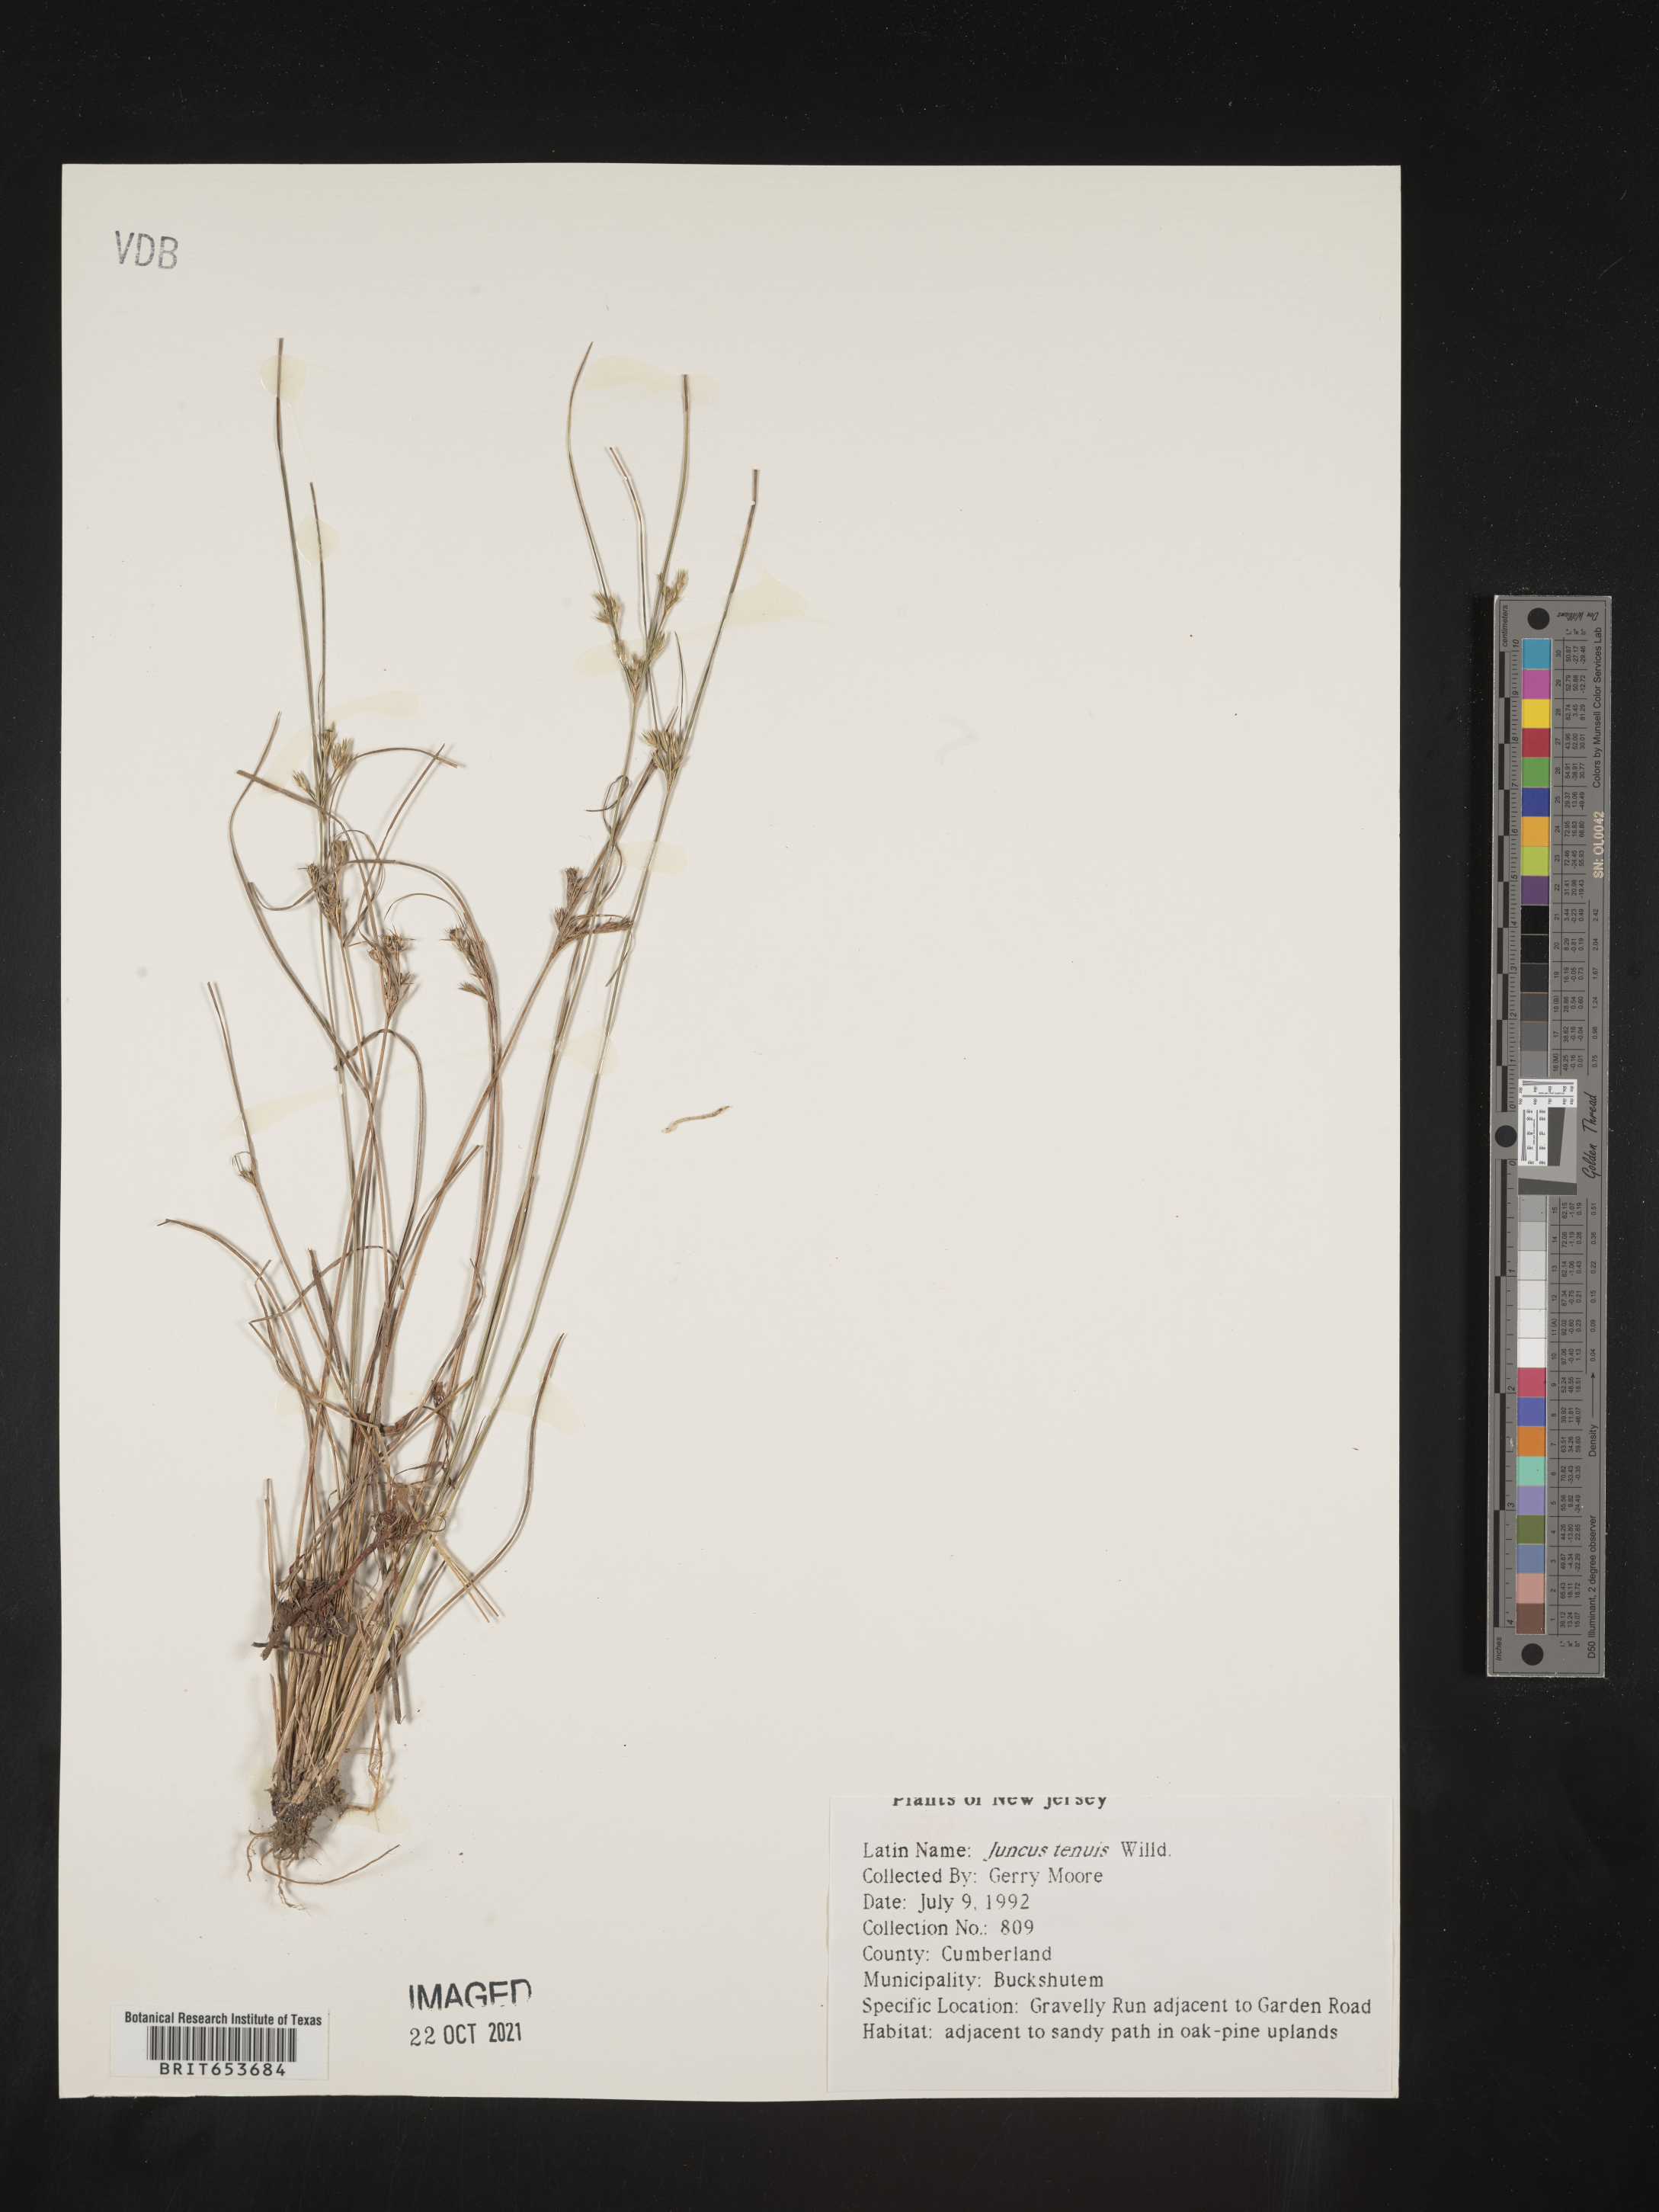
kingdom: Plantae
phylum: Tracheophyta
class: Liliopsida
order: Poales
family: Juncaceae
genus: Juncus
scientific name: Juncus tenuis
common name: Slender rush
